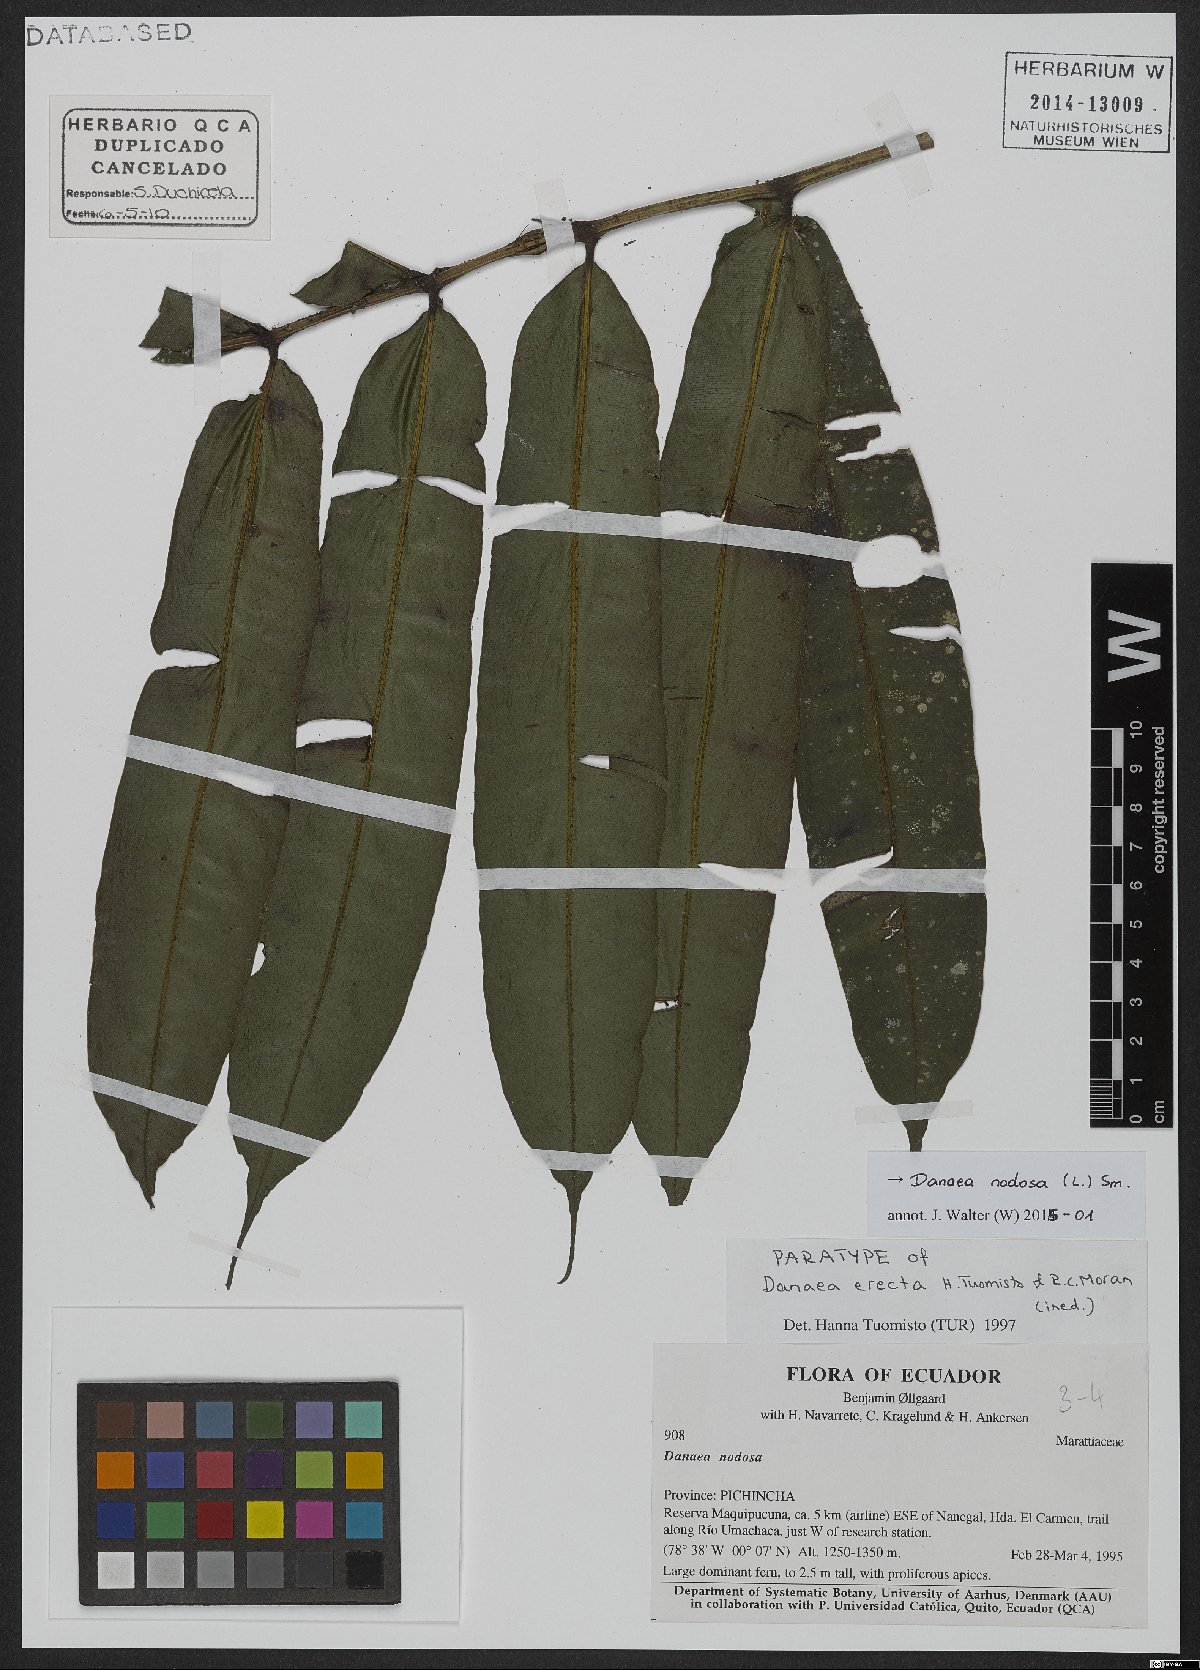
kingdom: Plantae
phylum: Tracheophyta
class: Polypodiopsida
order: Marattiales
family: Marattiaceae
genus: Danaea
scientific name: Danaea nodosa
